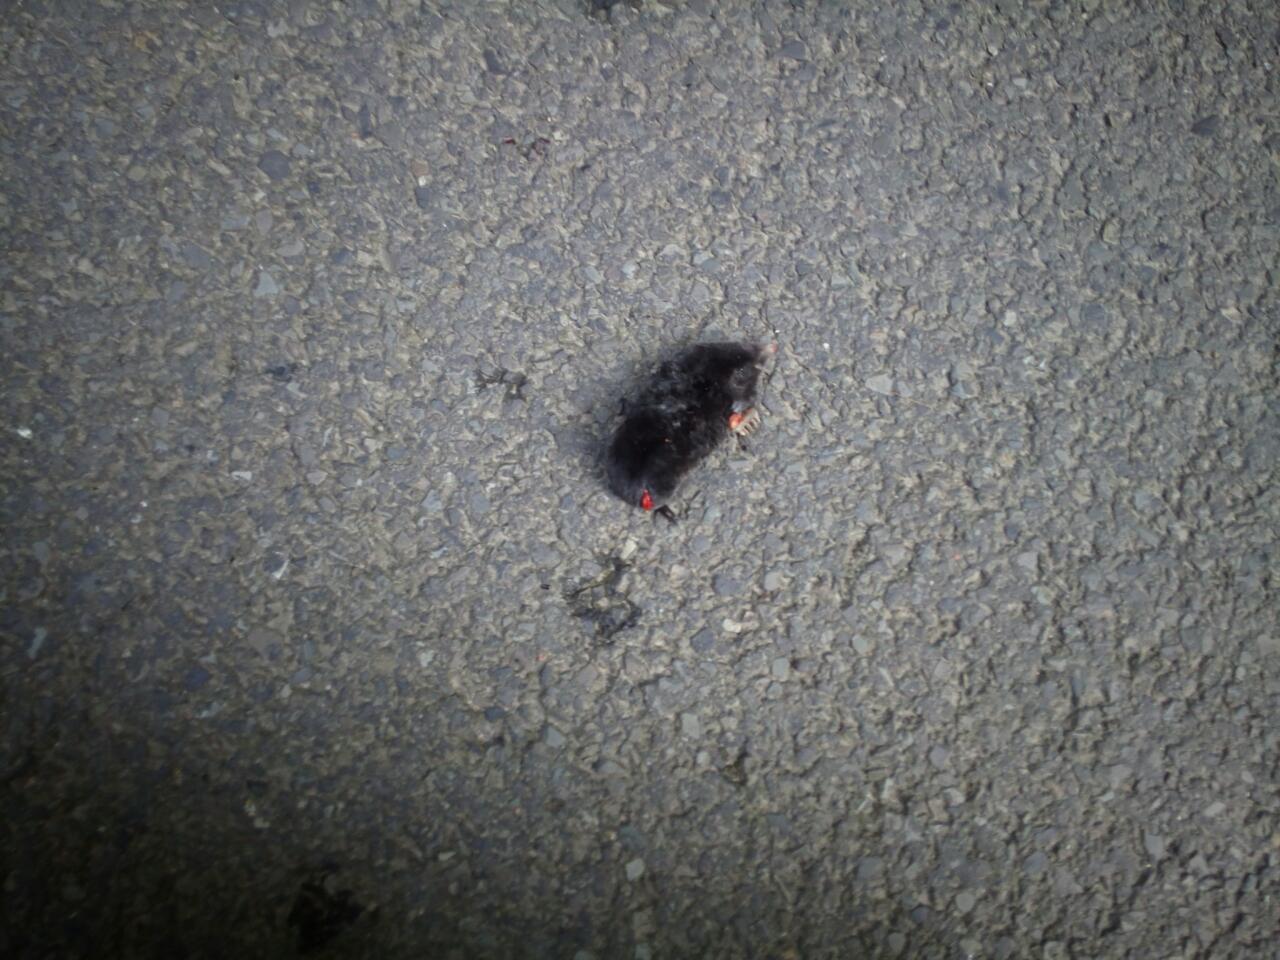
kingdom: Animalia
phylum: Chordata
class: Mammalia
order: Soricomorpha
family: Talpidae
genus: Talpa
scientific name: Talpa europaea
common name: European mole
